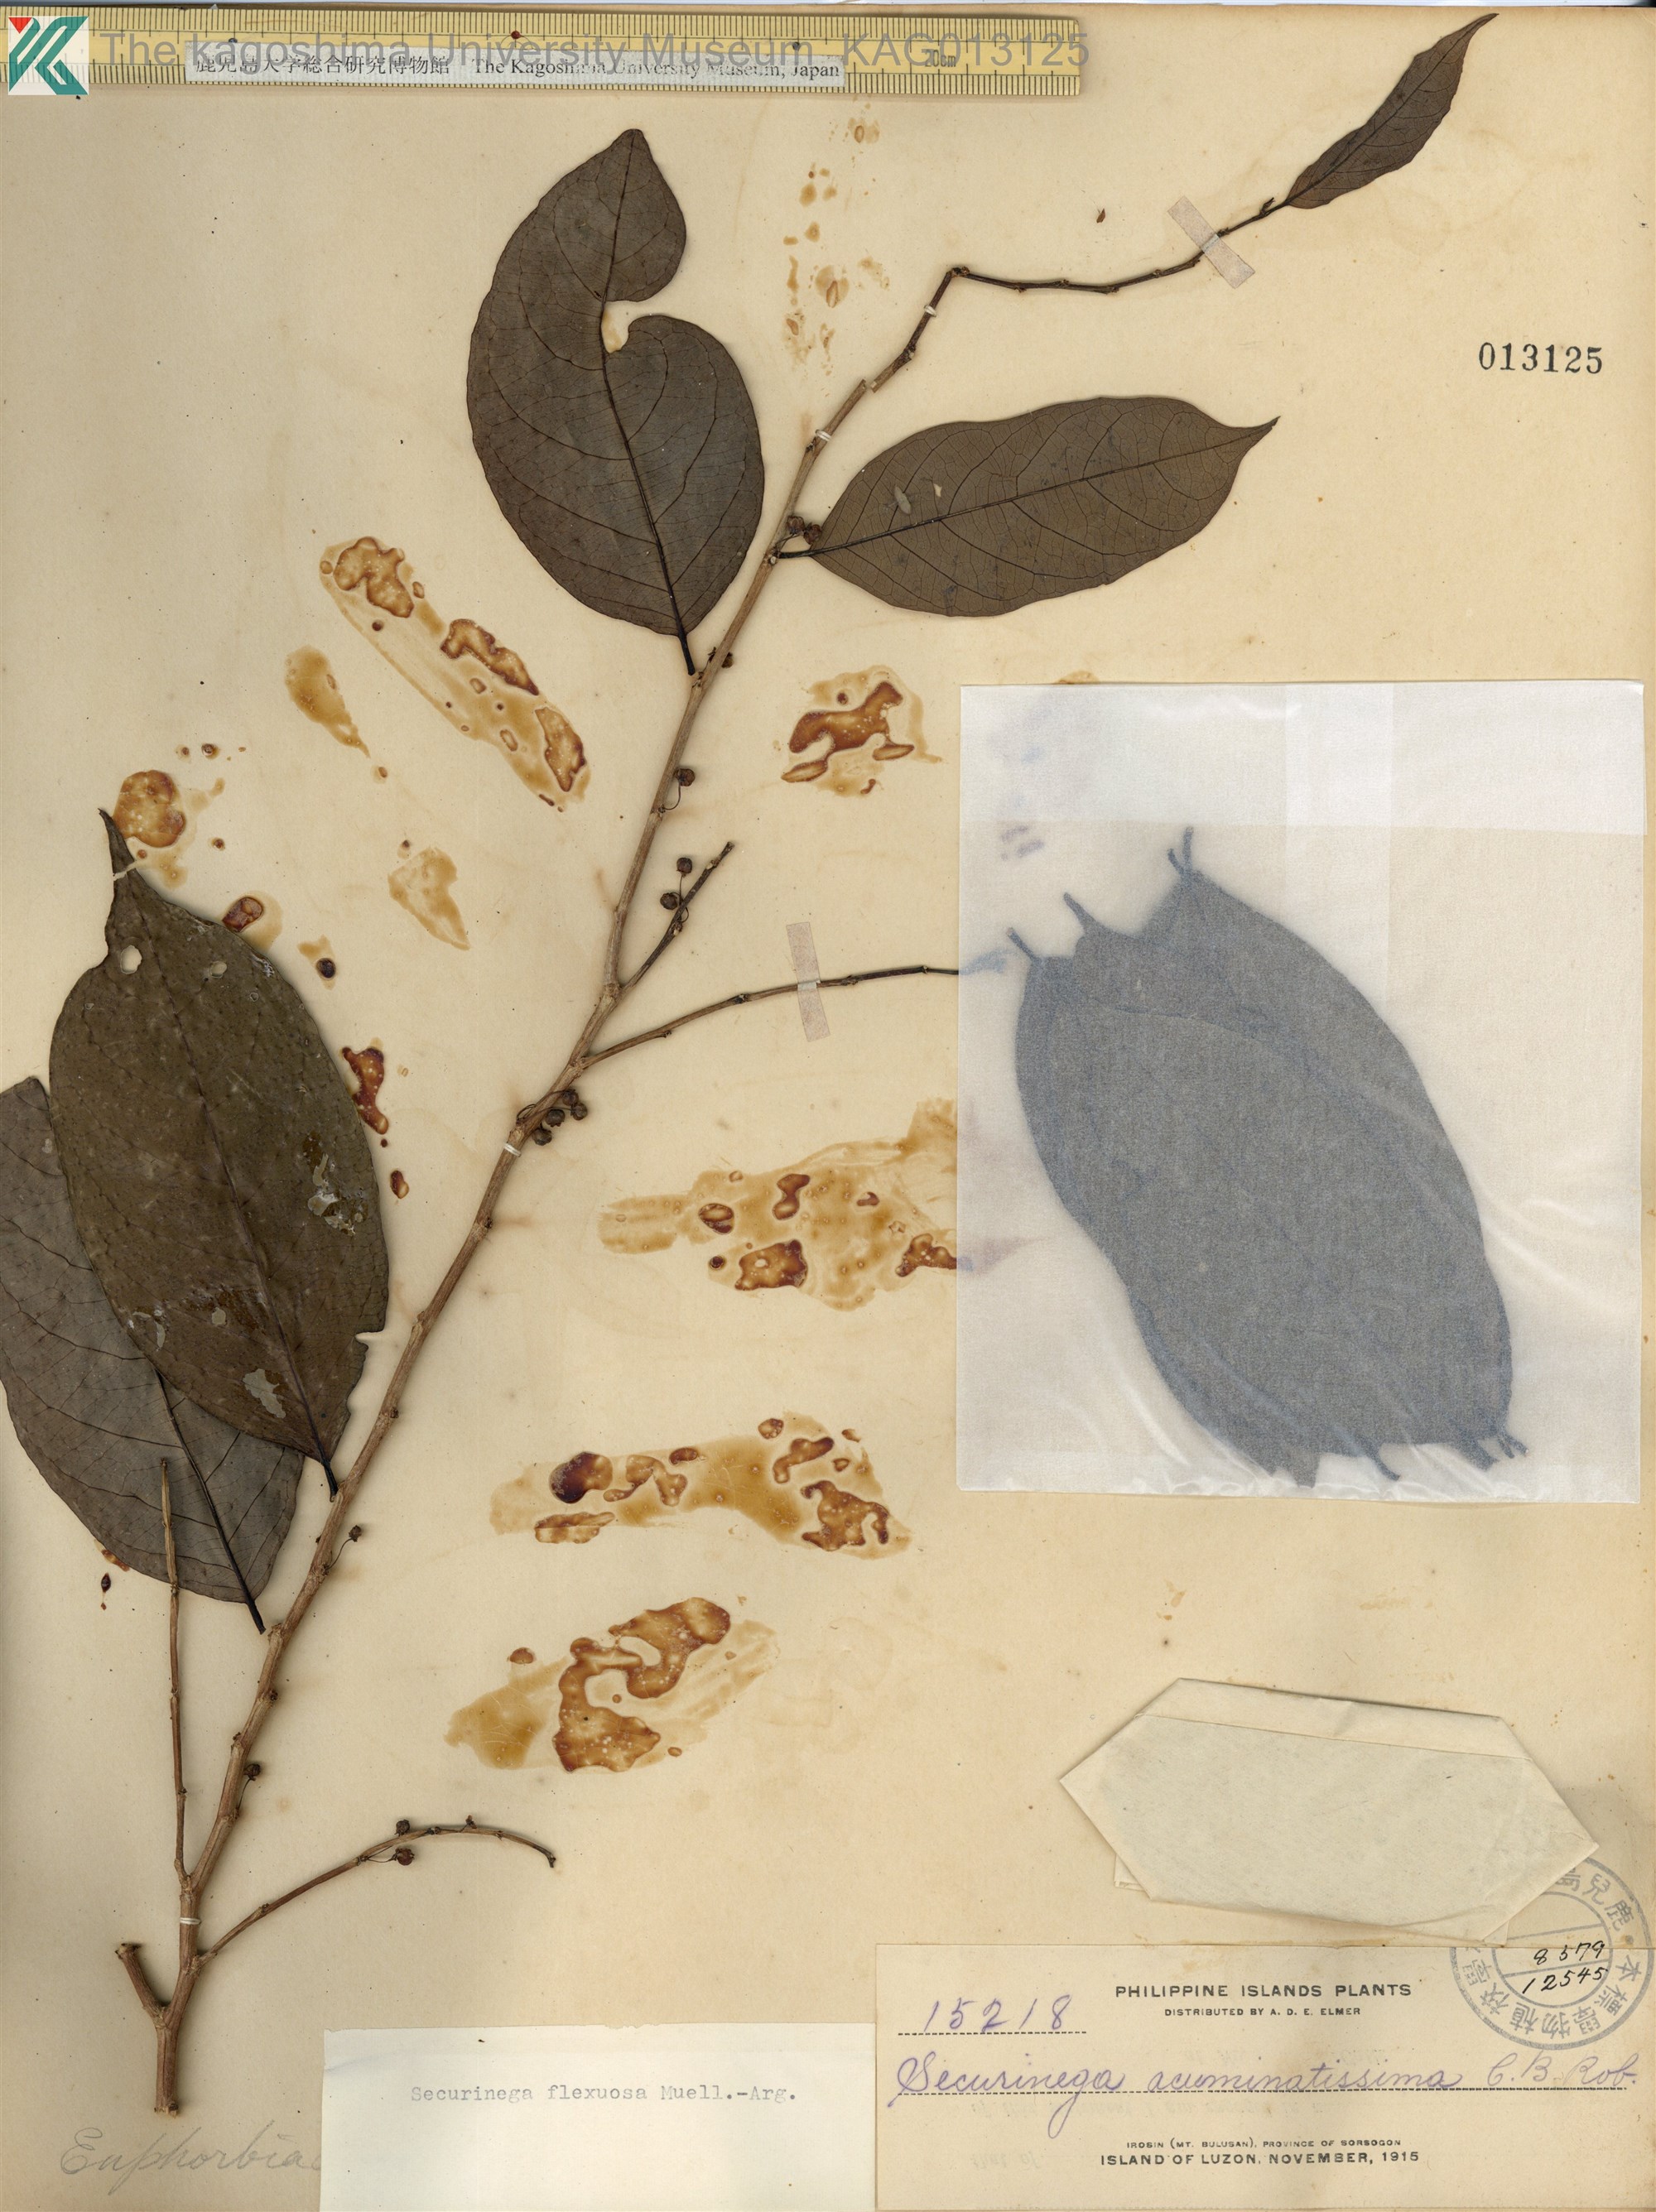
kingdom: Plantae
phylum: Tracheophyta
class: Magnoliopsida
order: Malpighiales
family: Phyllanthaceae
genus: Flueggea
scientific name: Flueggea flexuosa
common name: Poumuli
